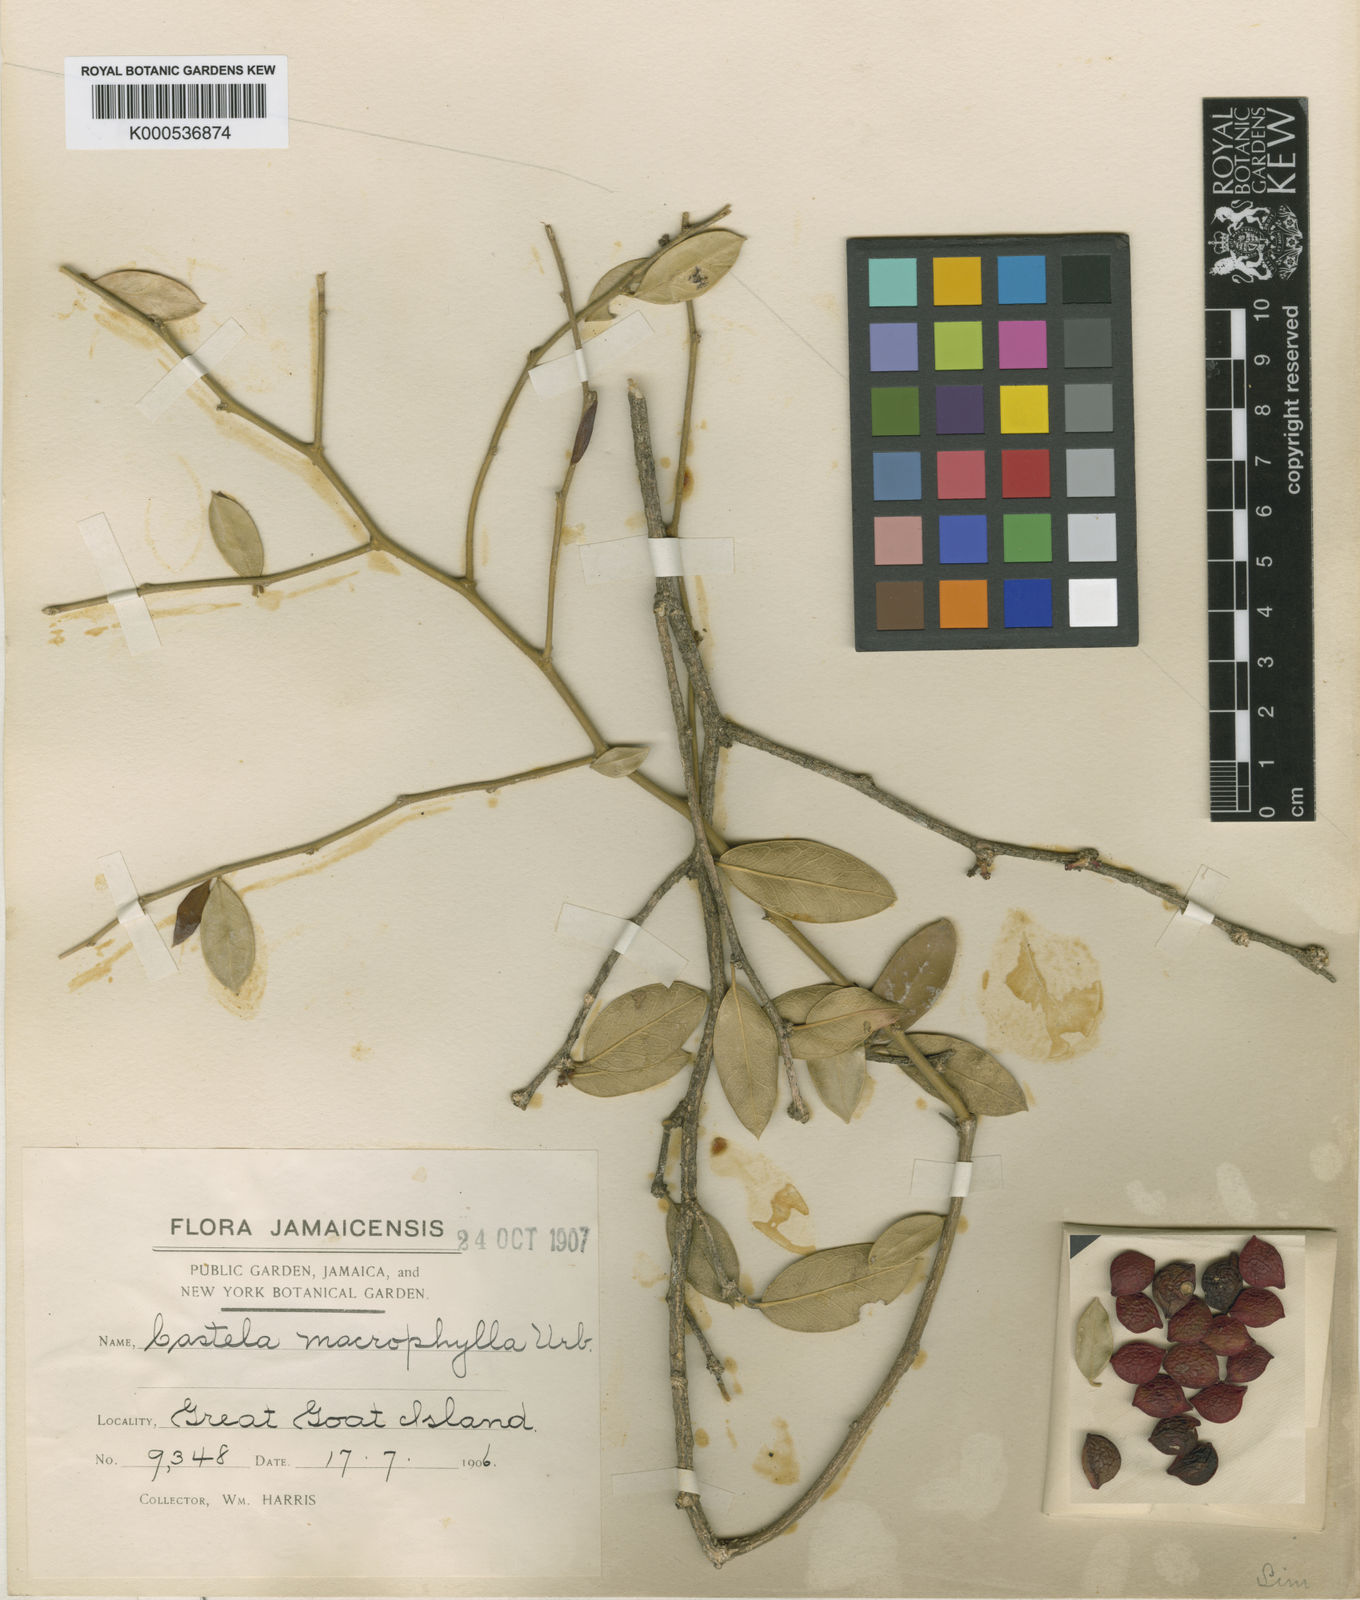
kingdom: Plantae
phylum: Tracheophyta
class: Magnoliopsida
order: Sapindales
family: Simaroubaceae
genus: Castela
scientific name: Castela macrophylla
